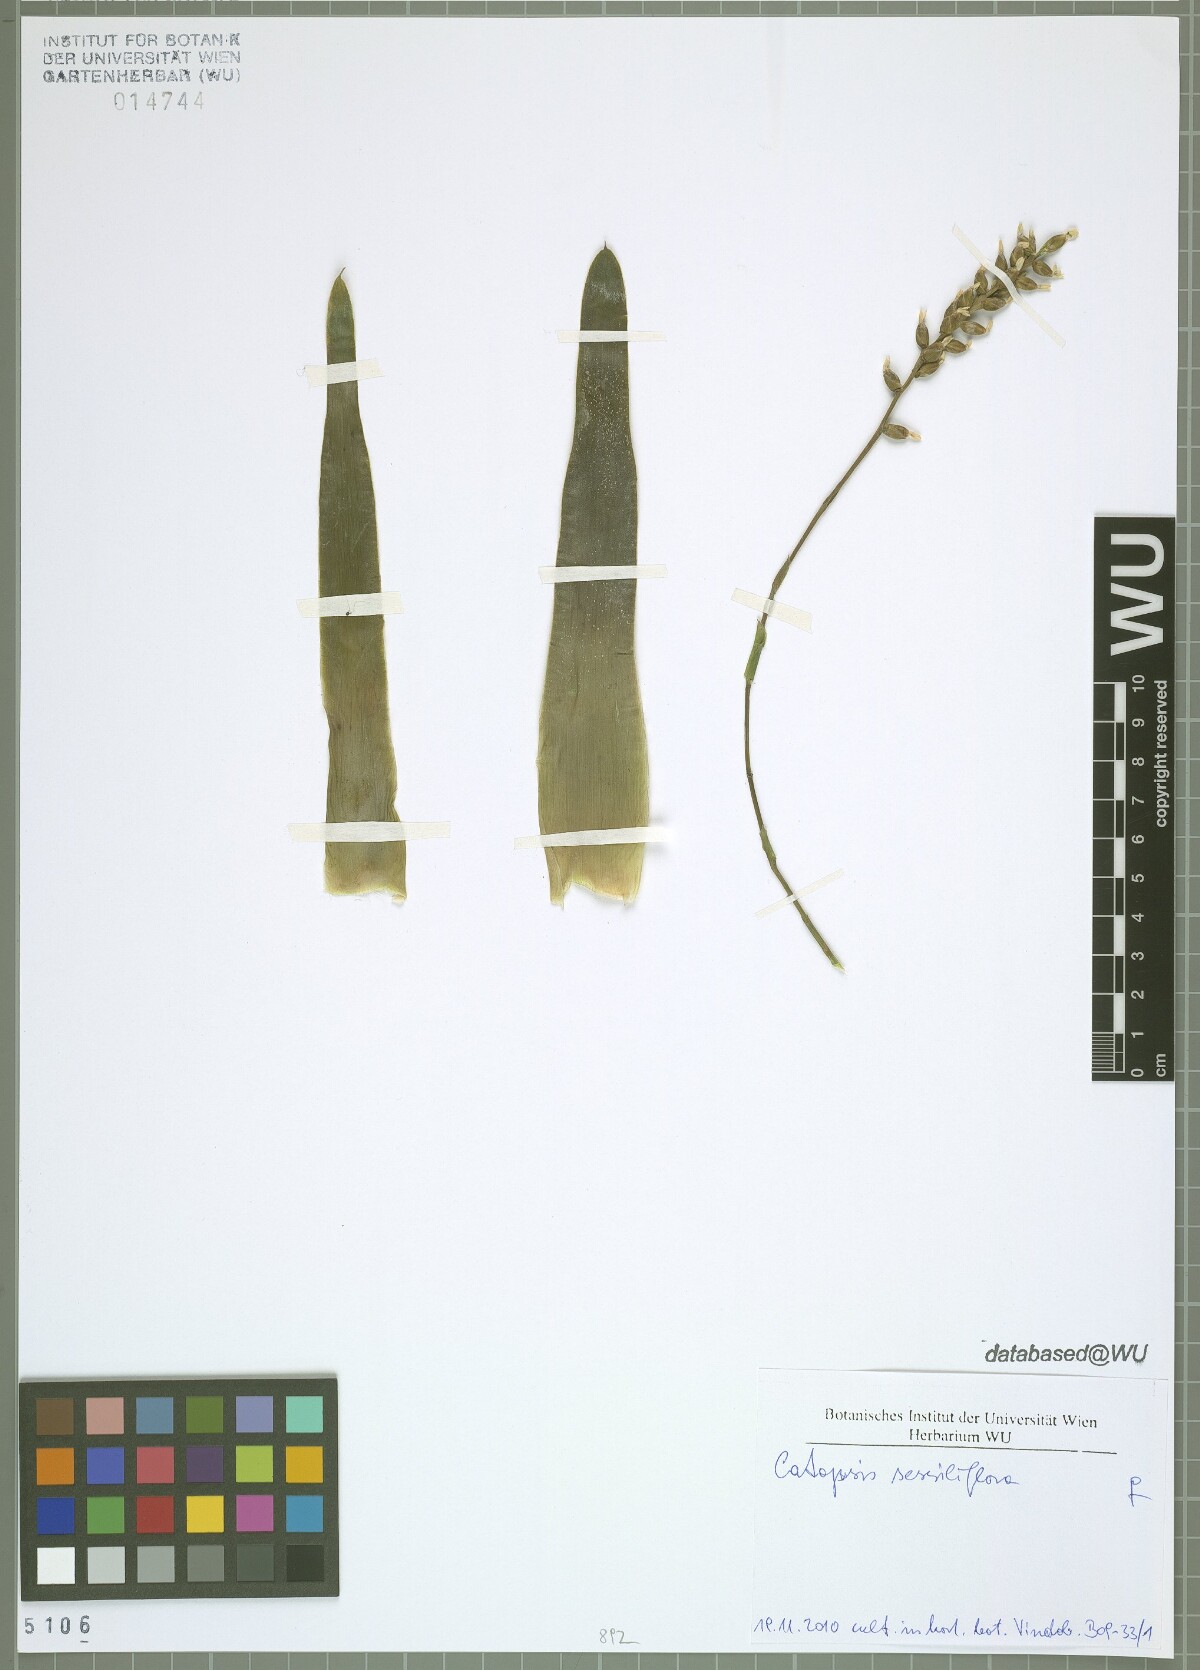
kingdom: Plantae
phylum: Tracheophyta
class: Liliopsida
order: Poales
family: Bromeliaceae
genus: Catopsis
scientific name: Catopsis sessiliflora
